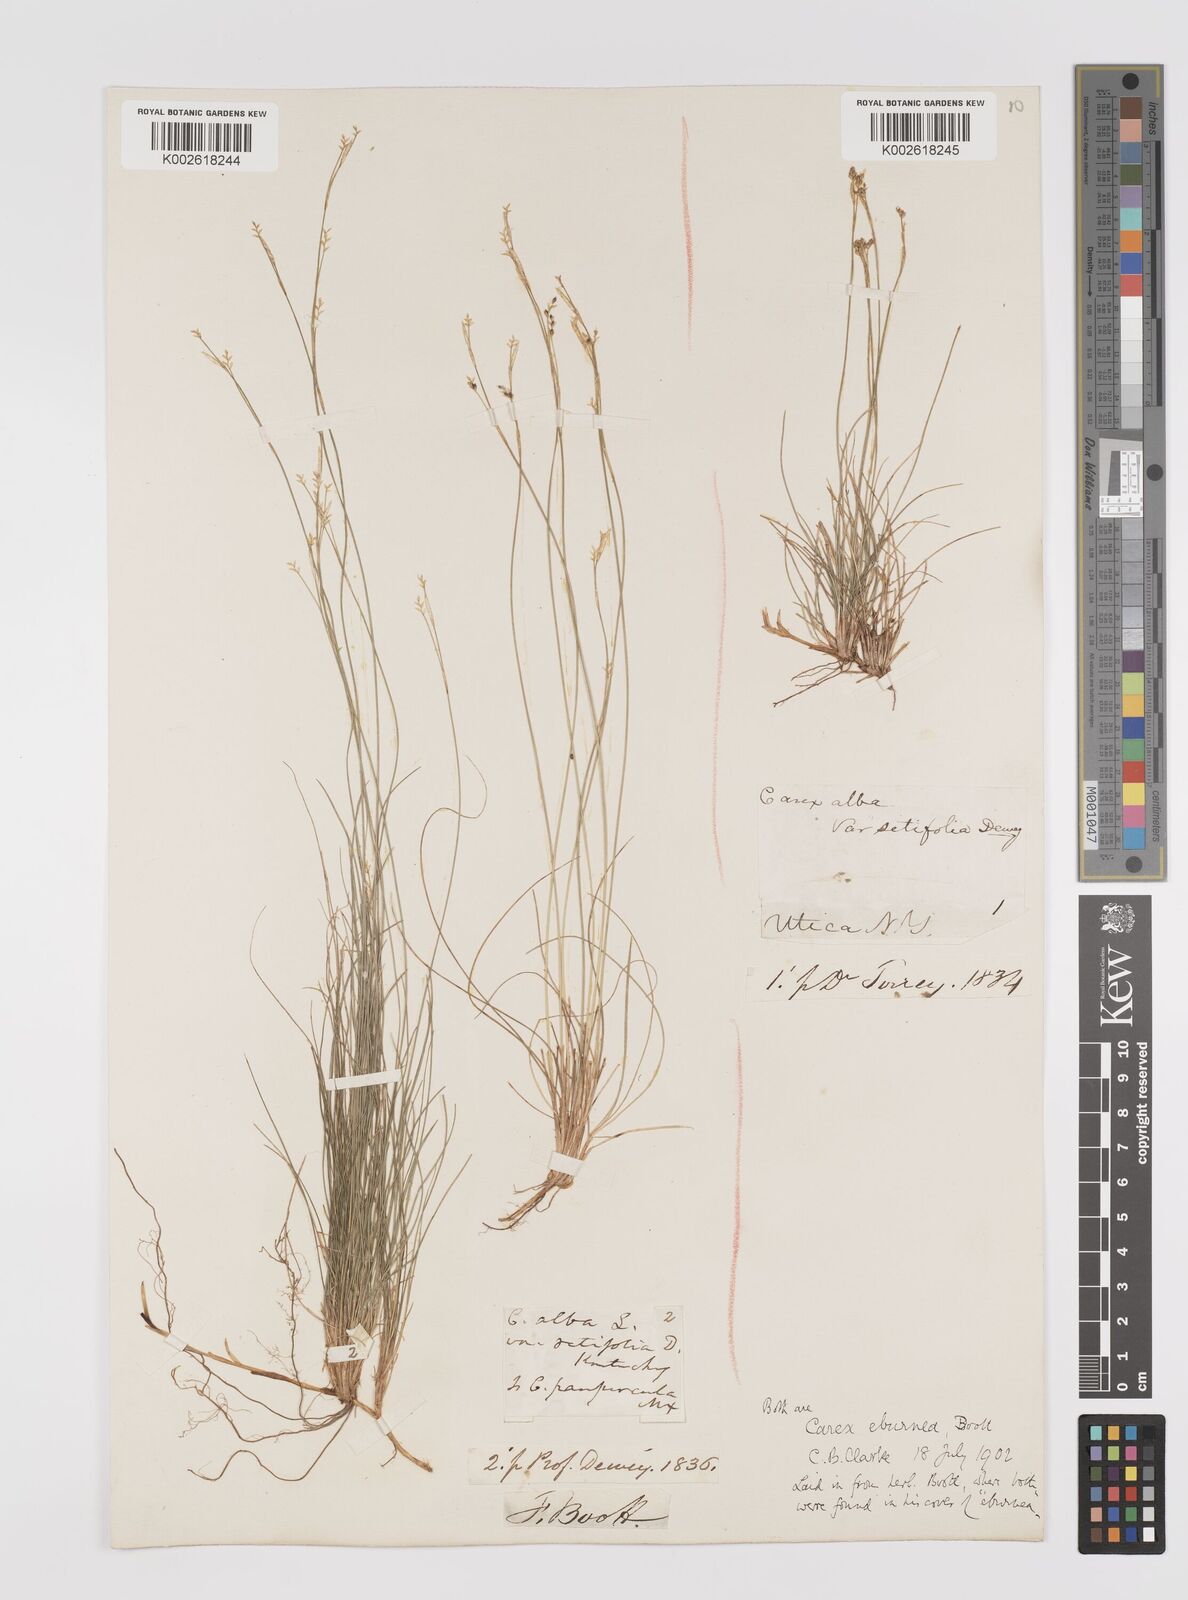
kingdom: Plantae
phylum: Tracheophyta
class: Liliopsida
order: Poales
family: Cyperaceae
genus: Carex
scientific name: Carex eburnea
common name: Bristle-leaved sedge
